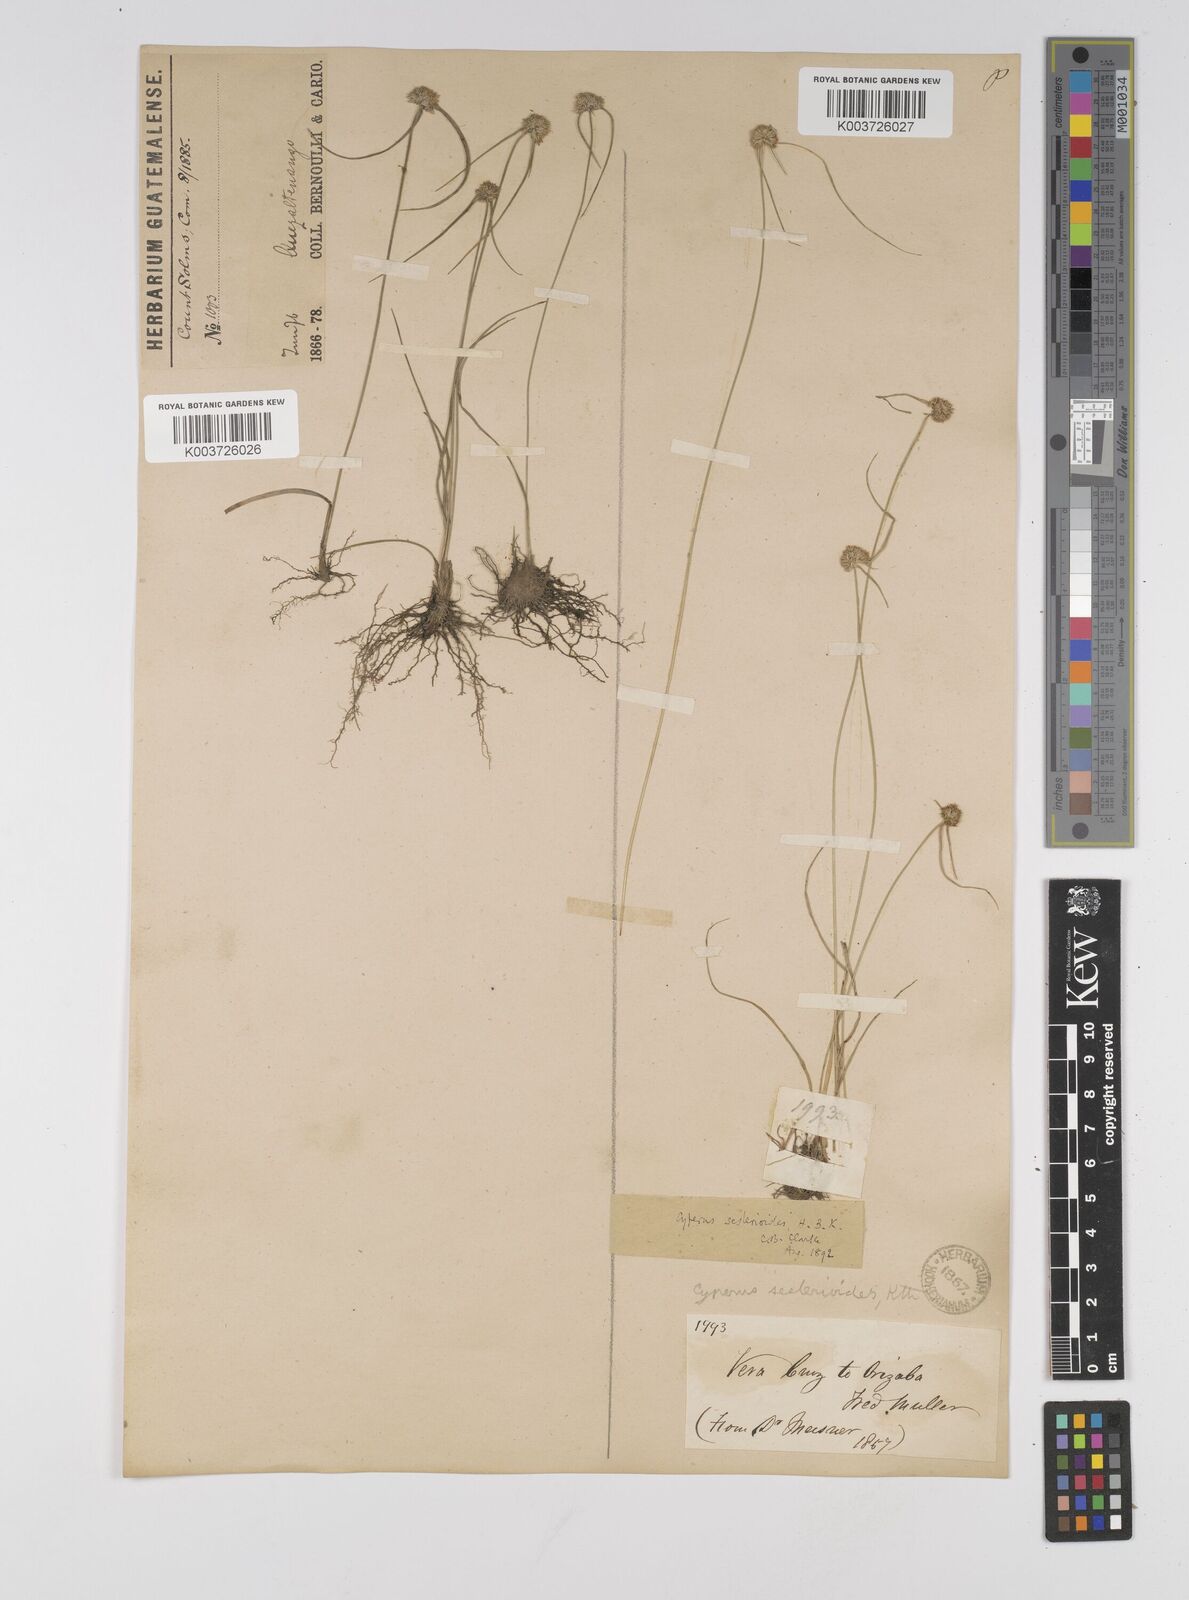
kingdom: Plantae
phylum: Tracheophyta
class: Liliopsida
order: Poales
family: Cyperaceae
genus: Cyperus
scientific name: Cyperus seslerioides
